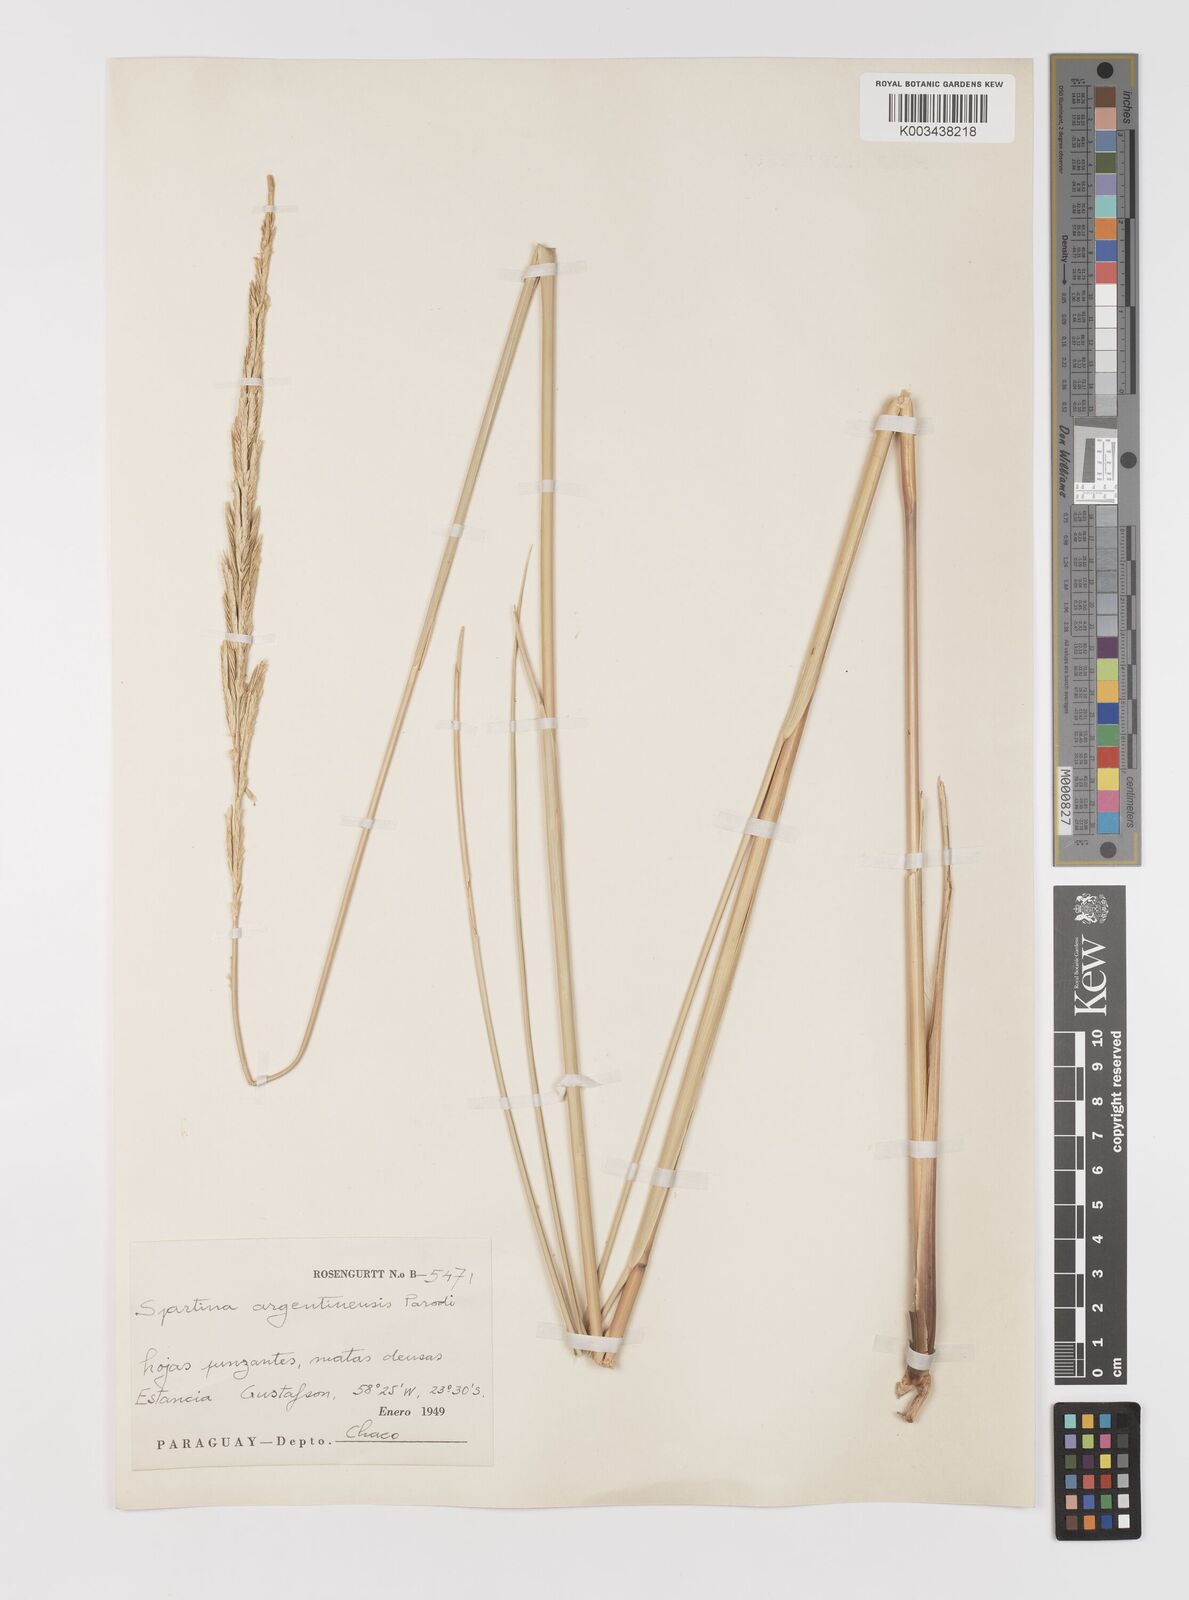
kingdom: Plantae
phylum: Tracheophyta
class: Liliopsida
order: Poales
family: Poaceae
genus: Sporobolus
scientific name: Sporobolus spartinae
